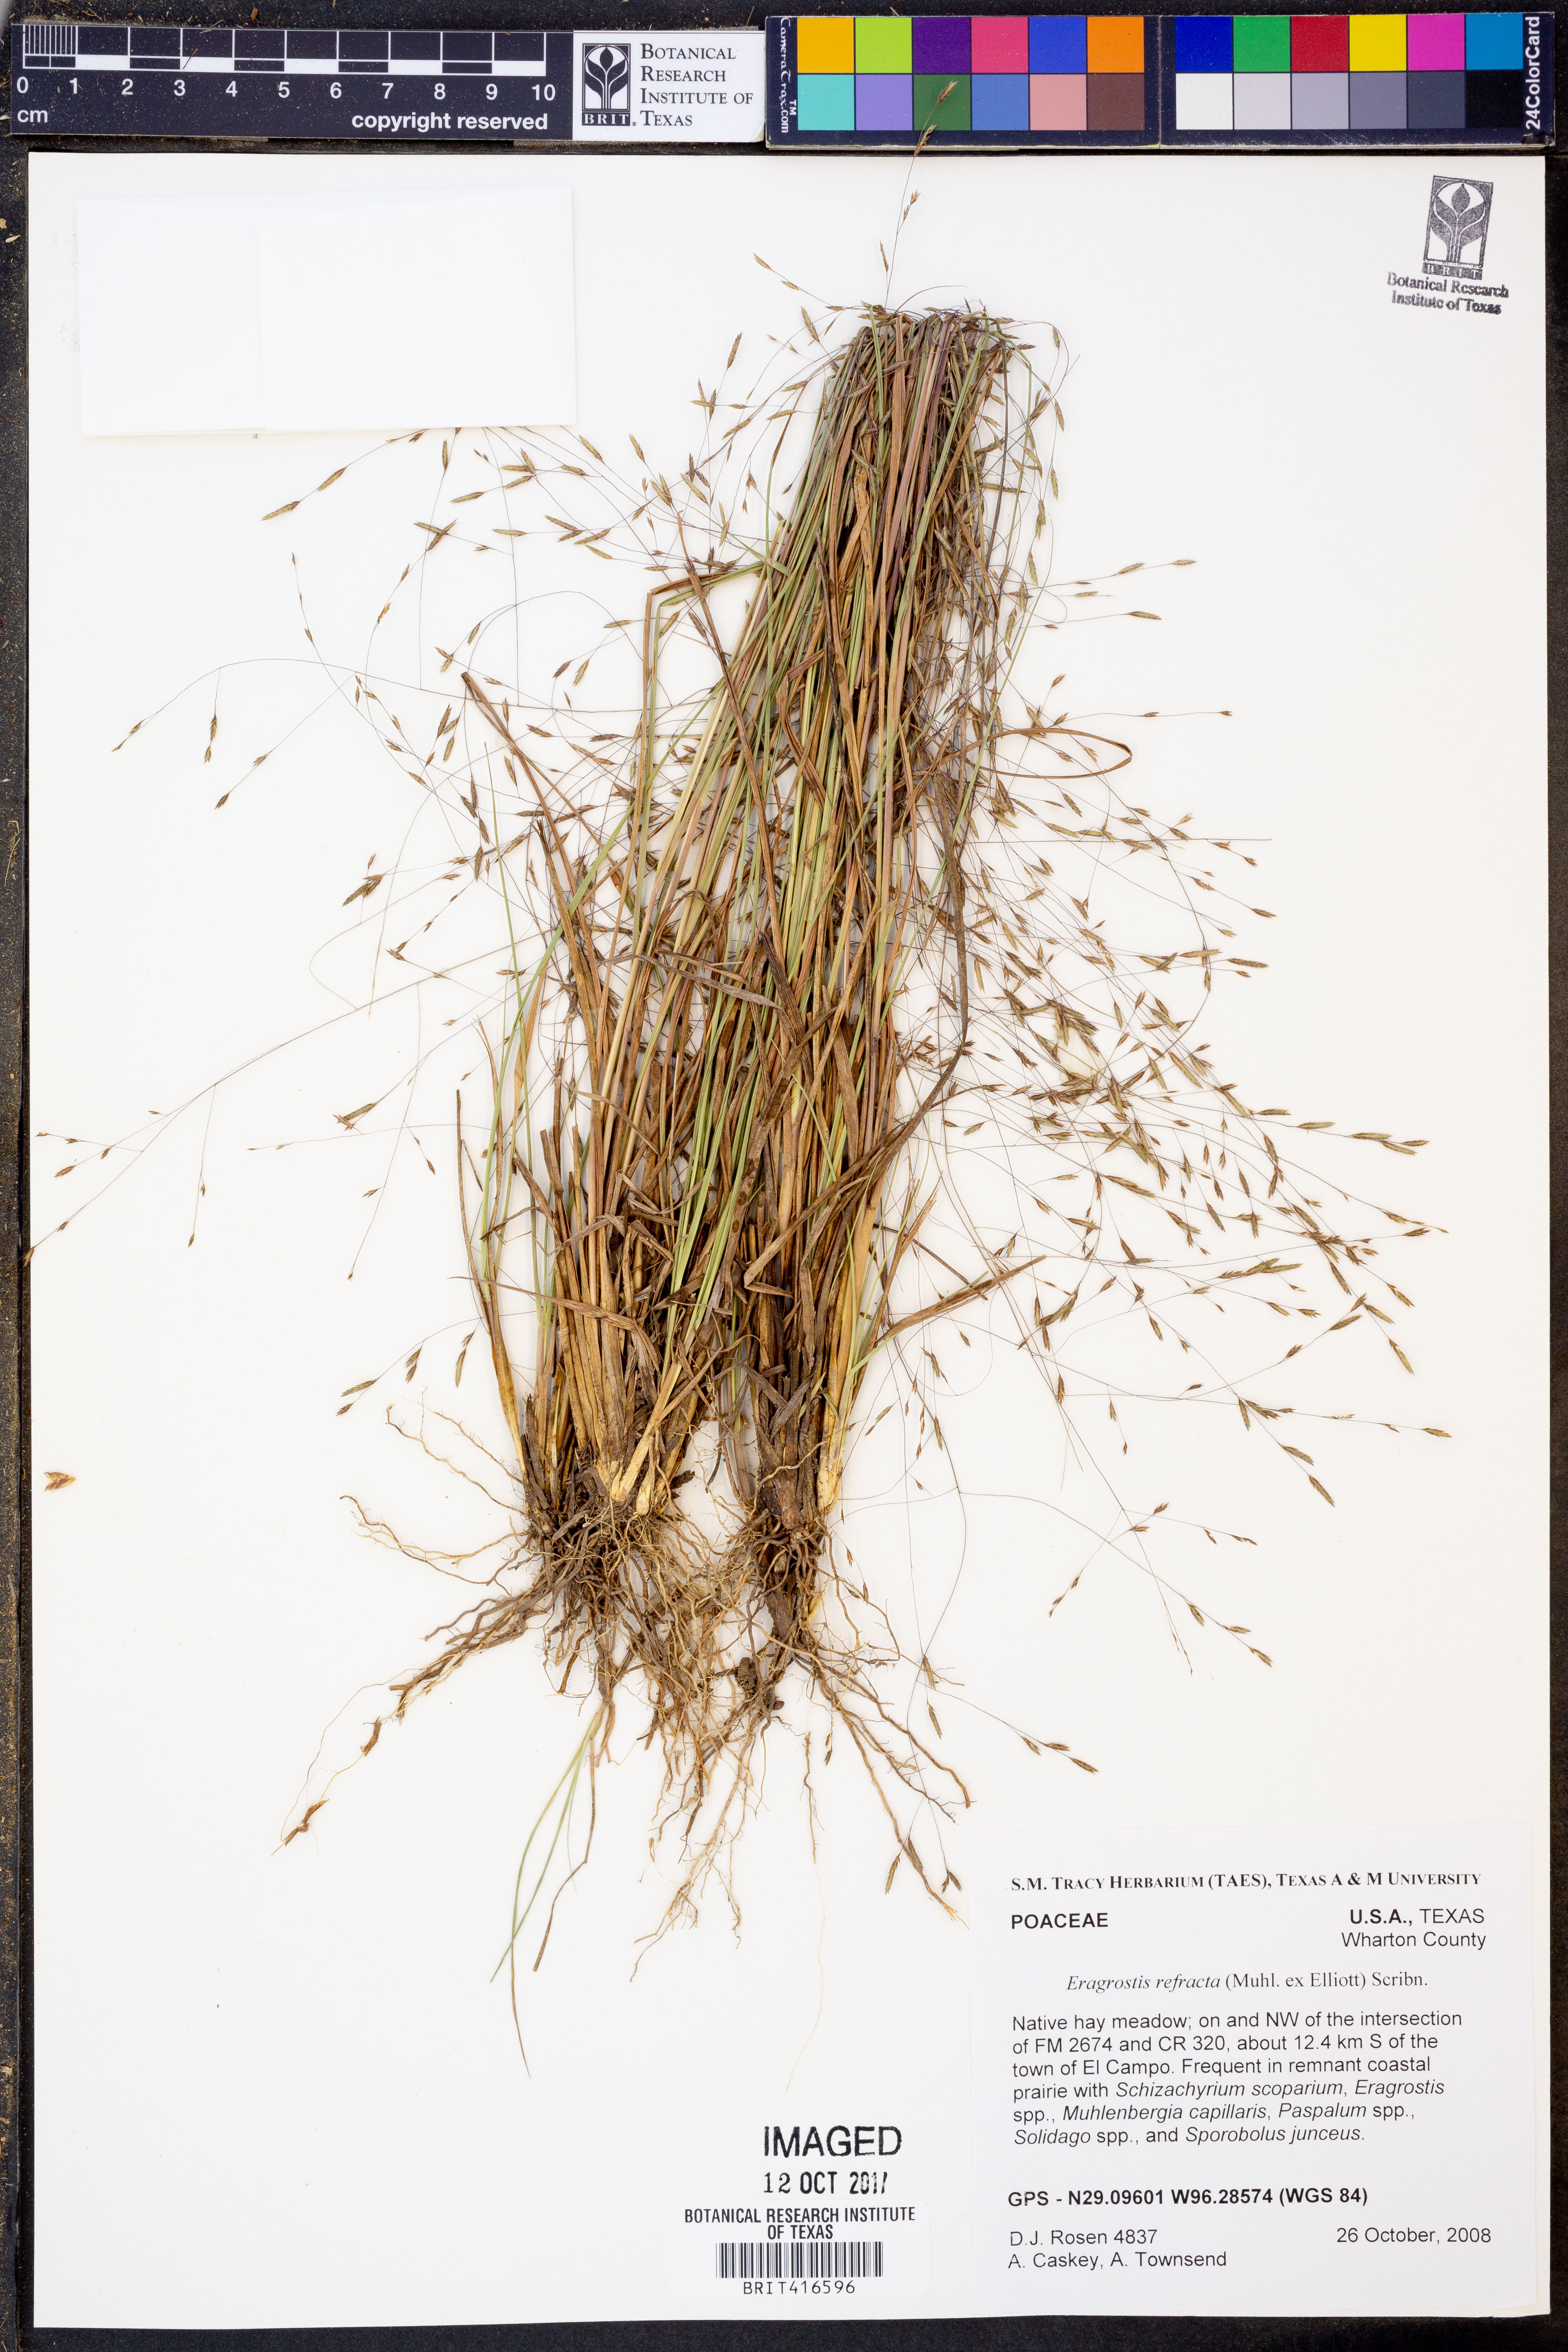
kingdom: Plantae
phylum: Tracheophyta
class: Liliopsida
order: Poales
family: Poaceae
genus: Eragrostis
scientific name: Eragrostis refracta
